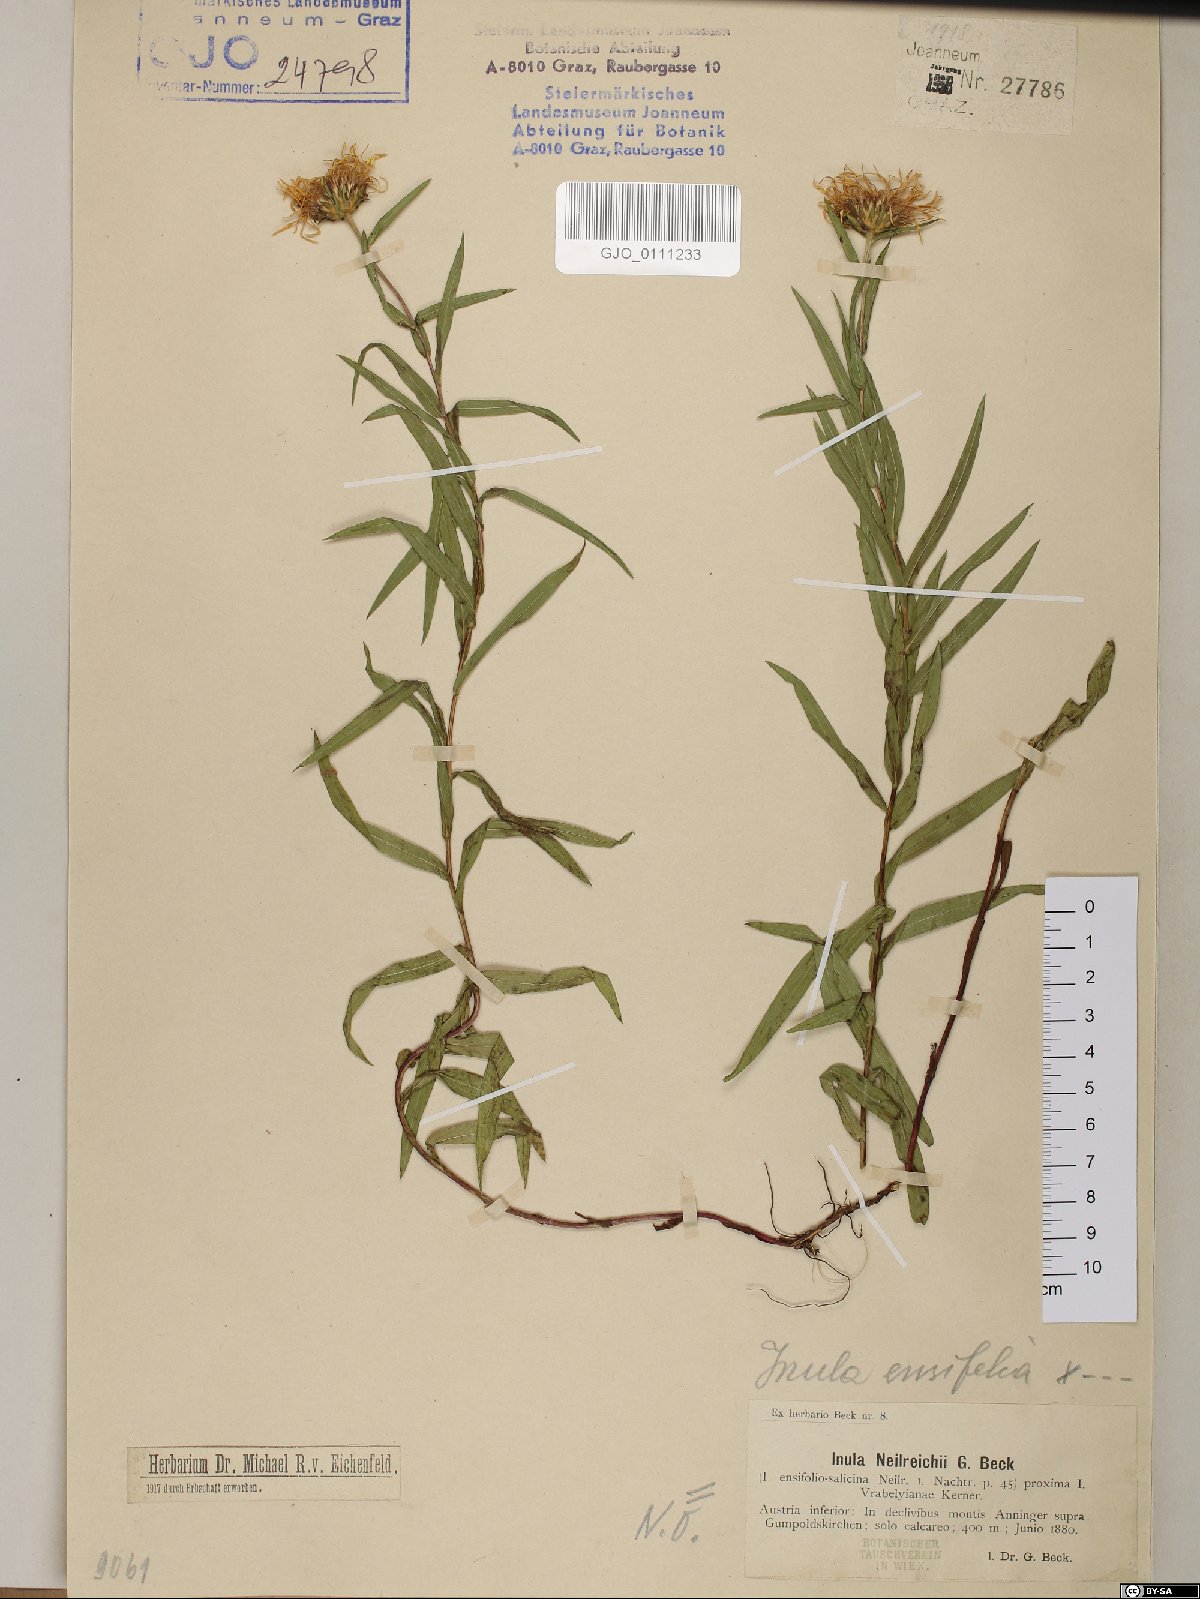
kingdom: Plantae
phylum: Tracheophyta
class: Magnoliopsida
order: Asterales
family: Asteraceae
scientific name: Asteraceae
